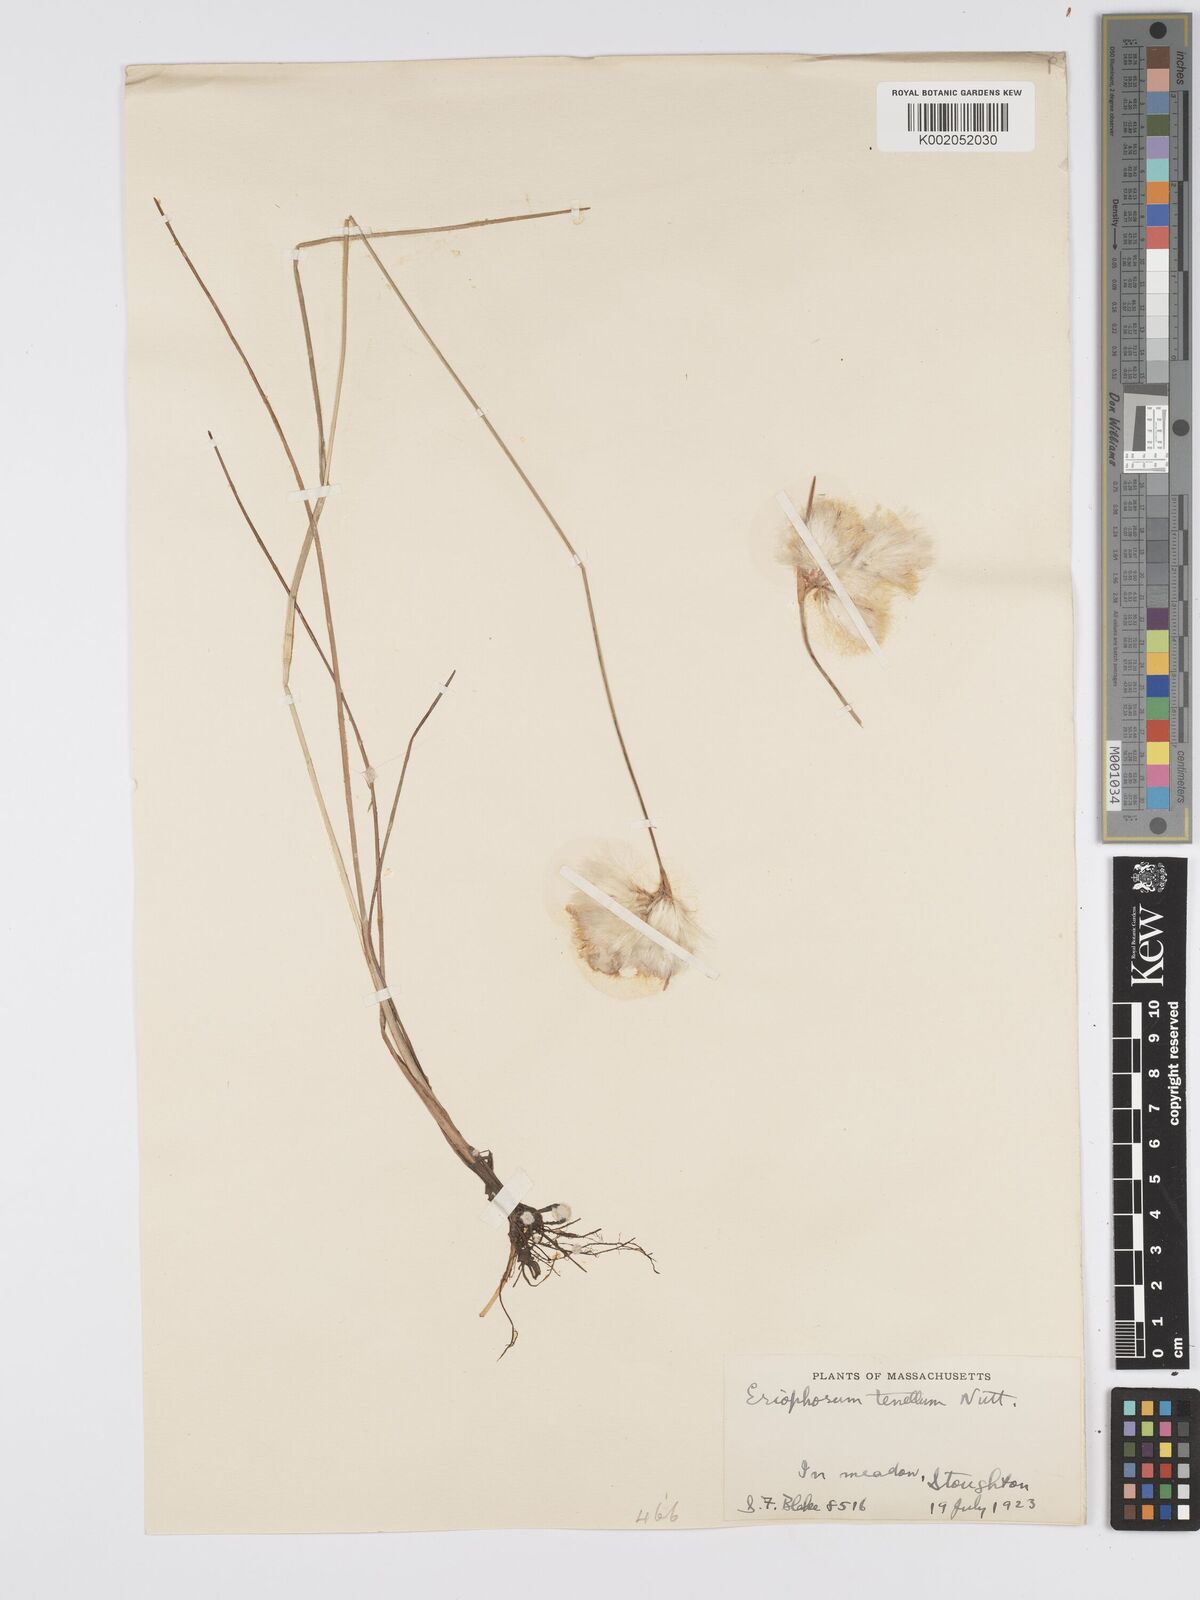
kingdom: Plantae
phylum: Tracheophyta
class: Liliopsida
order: Poales
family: Cyperaceae
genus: Eriophorum
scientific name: Eriophorum tenellum
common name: Few-nerved cottongrass
